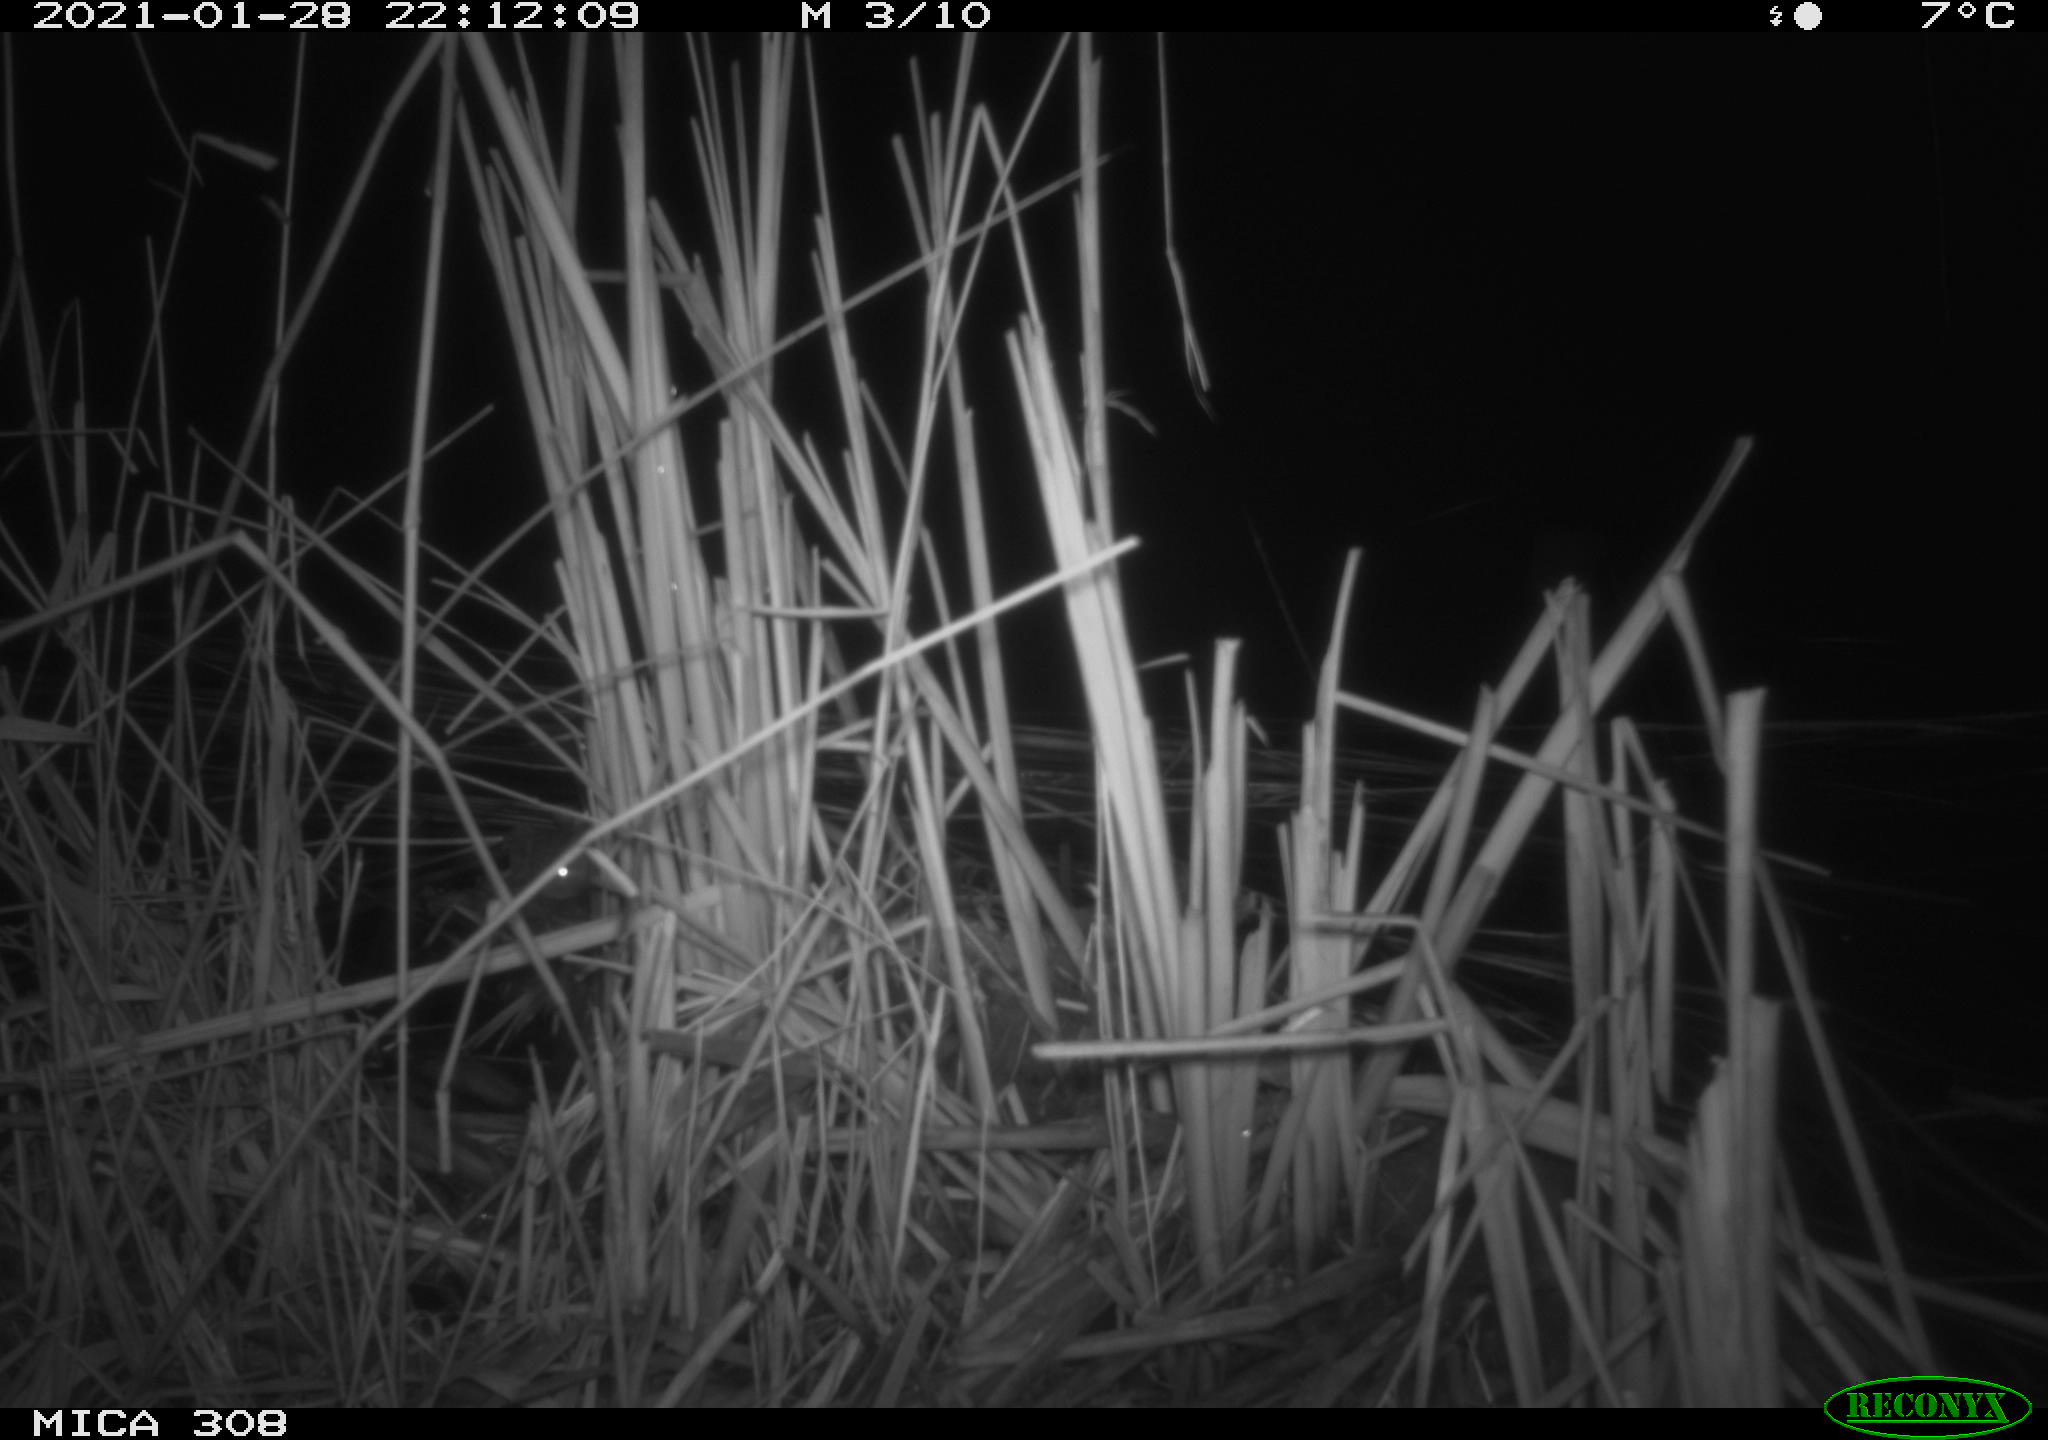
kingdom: Animalia
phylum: Chordata
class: Mammalia
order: Rodentia
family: Muridae
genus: Rattus
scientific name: Rattus norvegicus
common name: Brown rat
